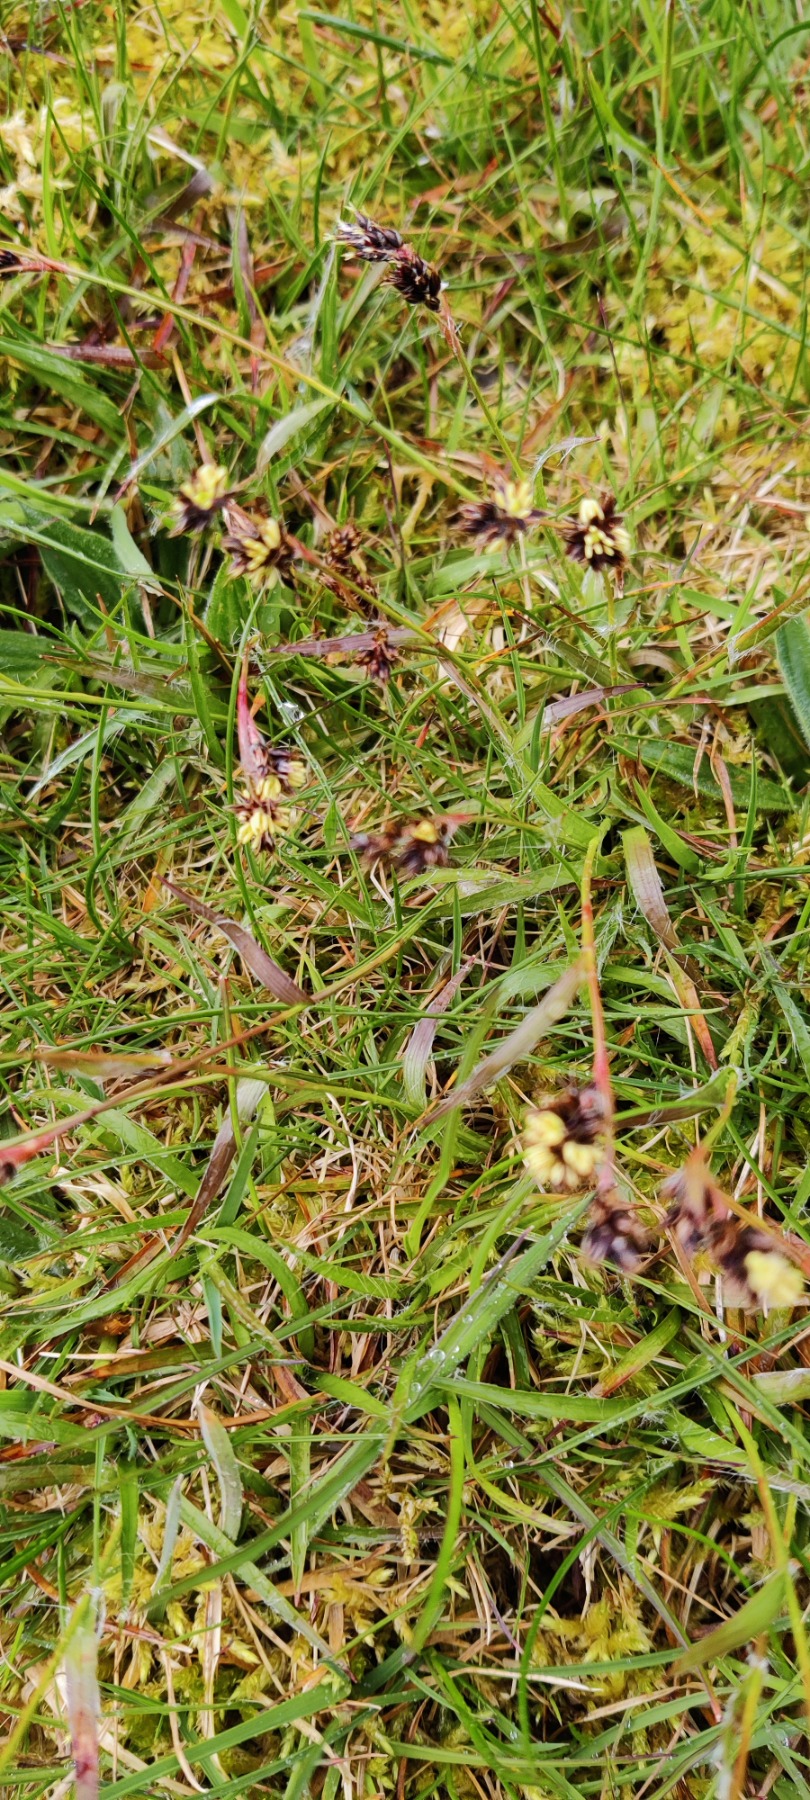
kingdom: Plantae
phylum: Tracheophyta
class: Liliopsida
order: Poales
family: Juncaceae
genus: Luzula
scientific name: Luzula campestris
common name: Mark-frytle
